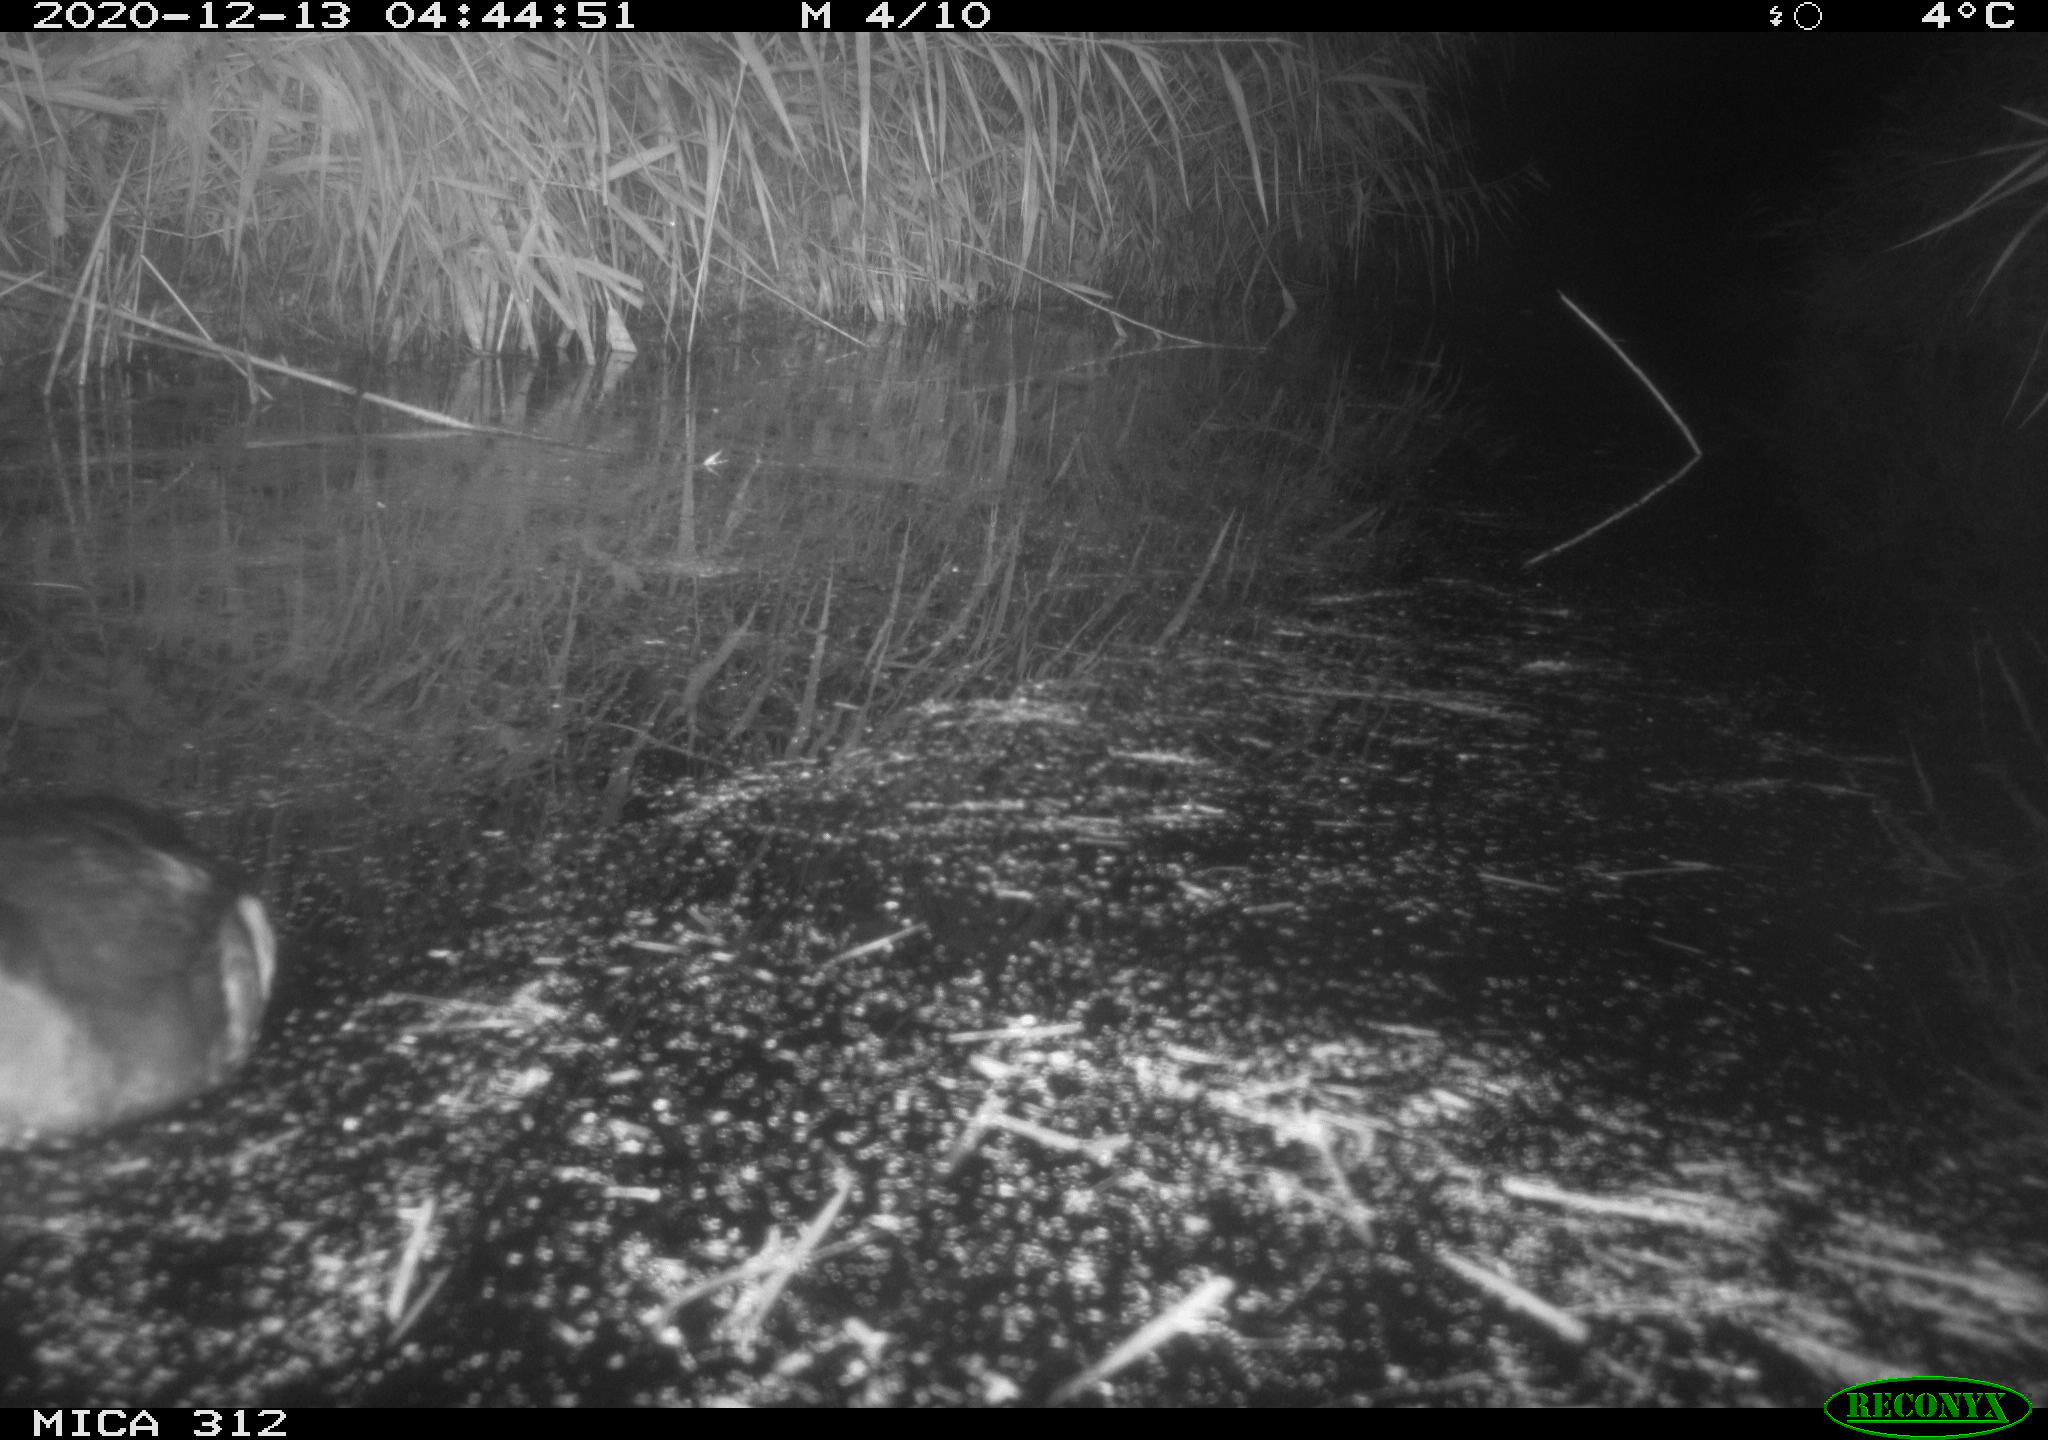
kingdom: Animalia
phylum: Chordata
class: Aves
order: Gruiformes
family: Rallidae
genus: Fulica
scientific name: Fulica atra
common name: Eurasian coot
